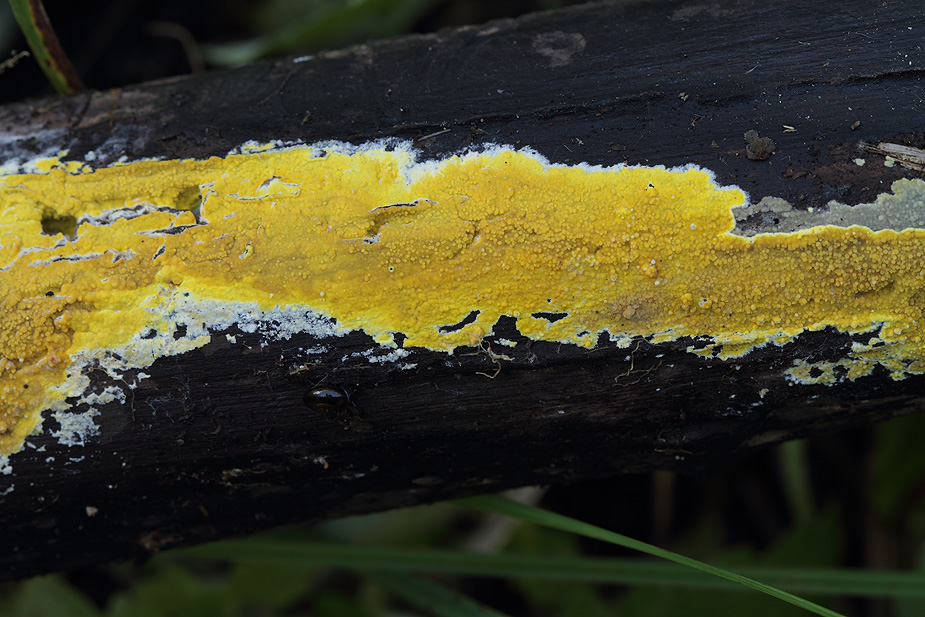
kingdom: Fungi
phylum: Basidiomycota
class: Agaricomycetes
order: Polyporales
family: Meruliaceae
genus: Phlebiodontia
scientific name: Phlebiodontia subochracea
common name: svovl-åresvamp
